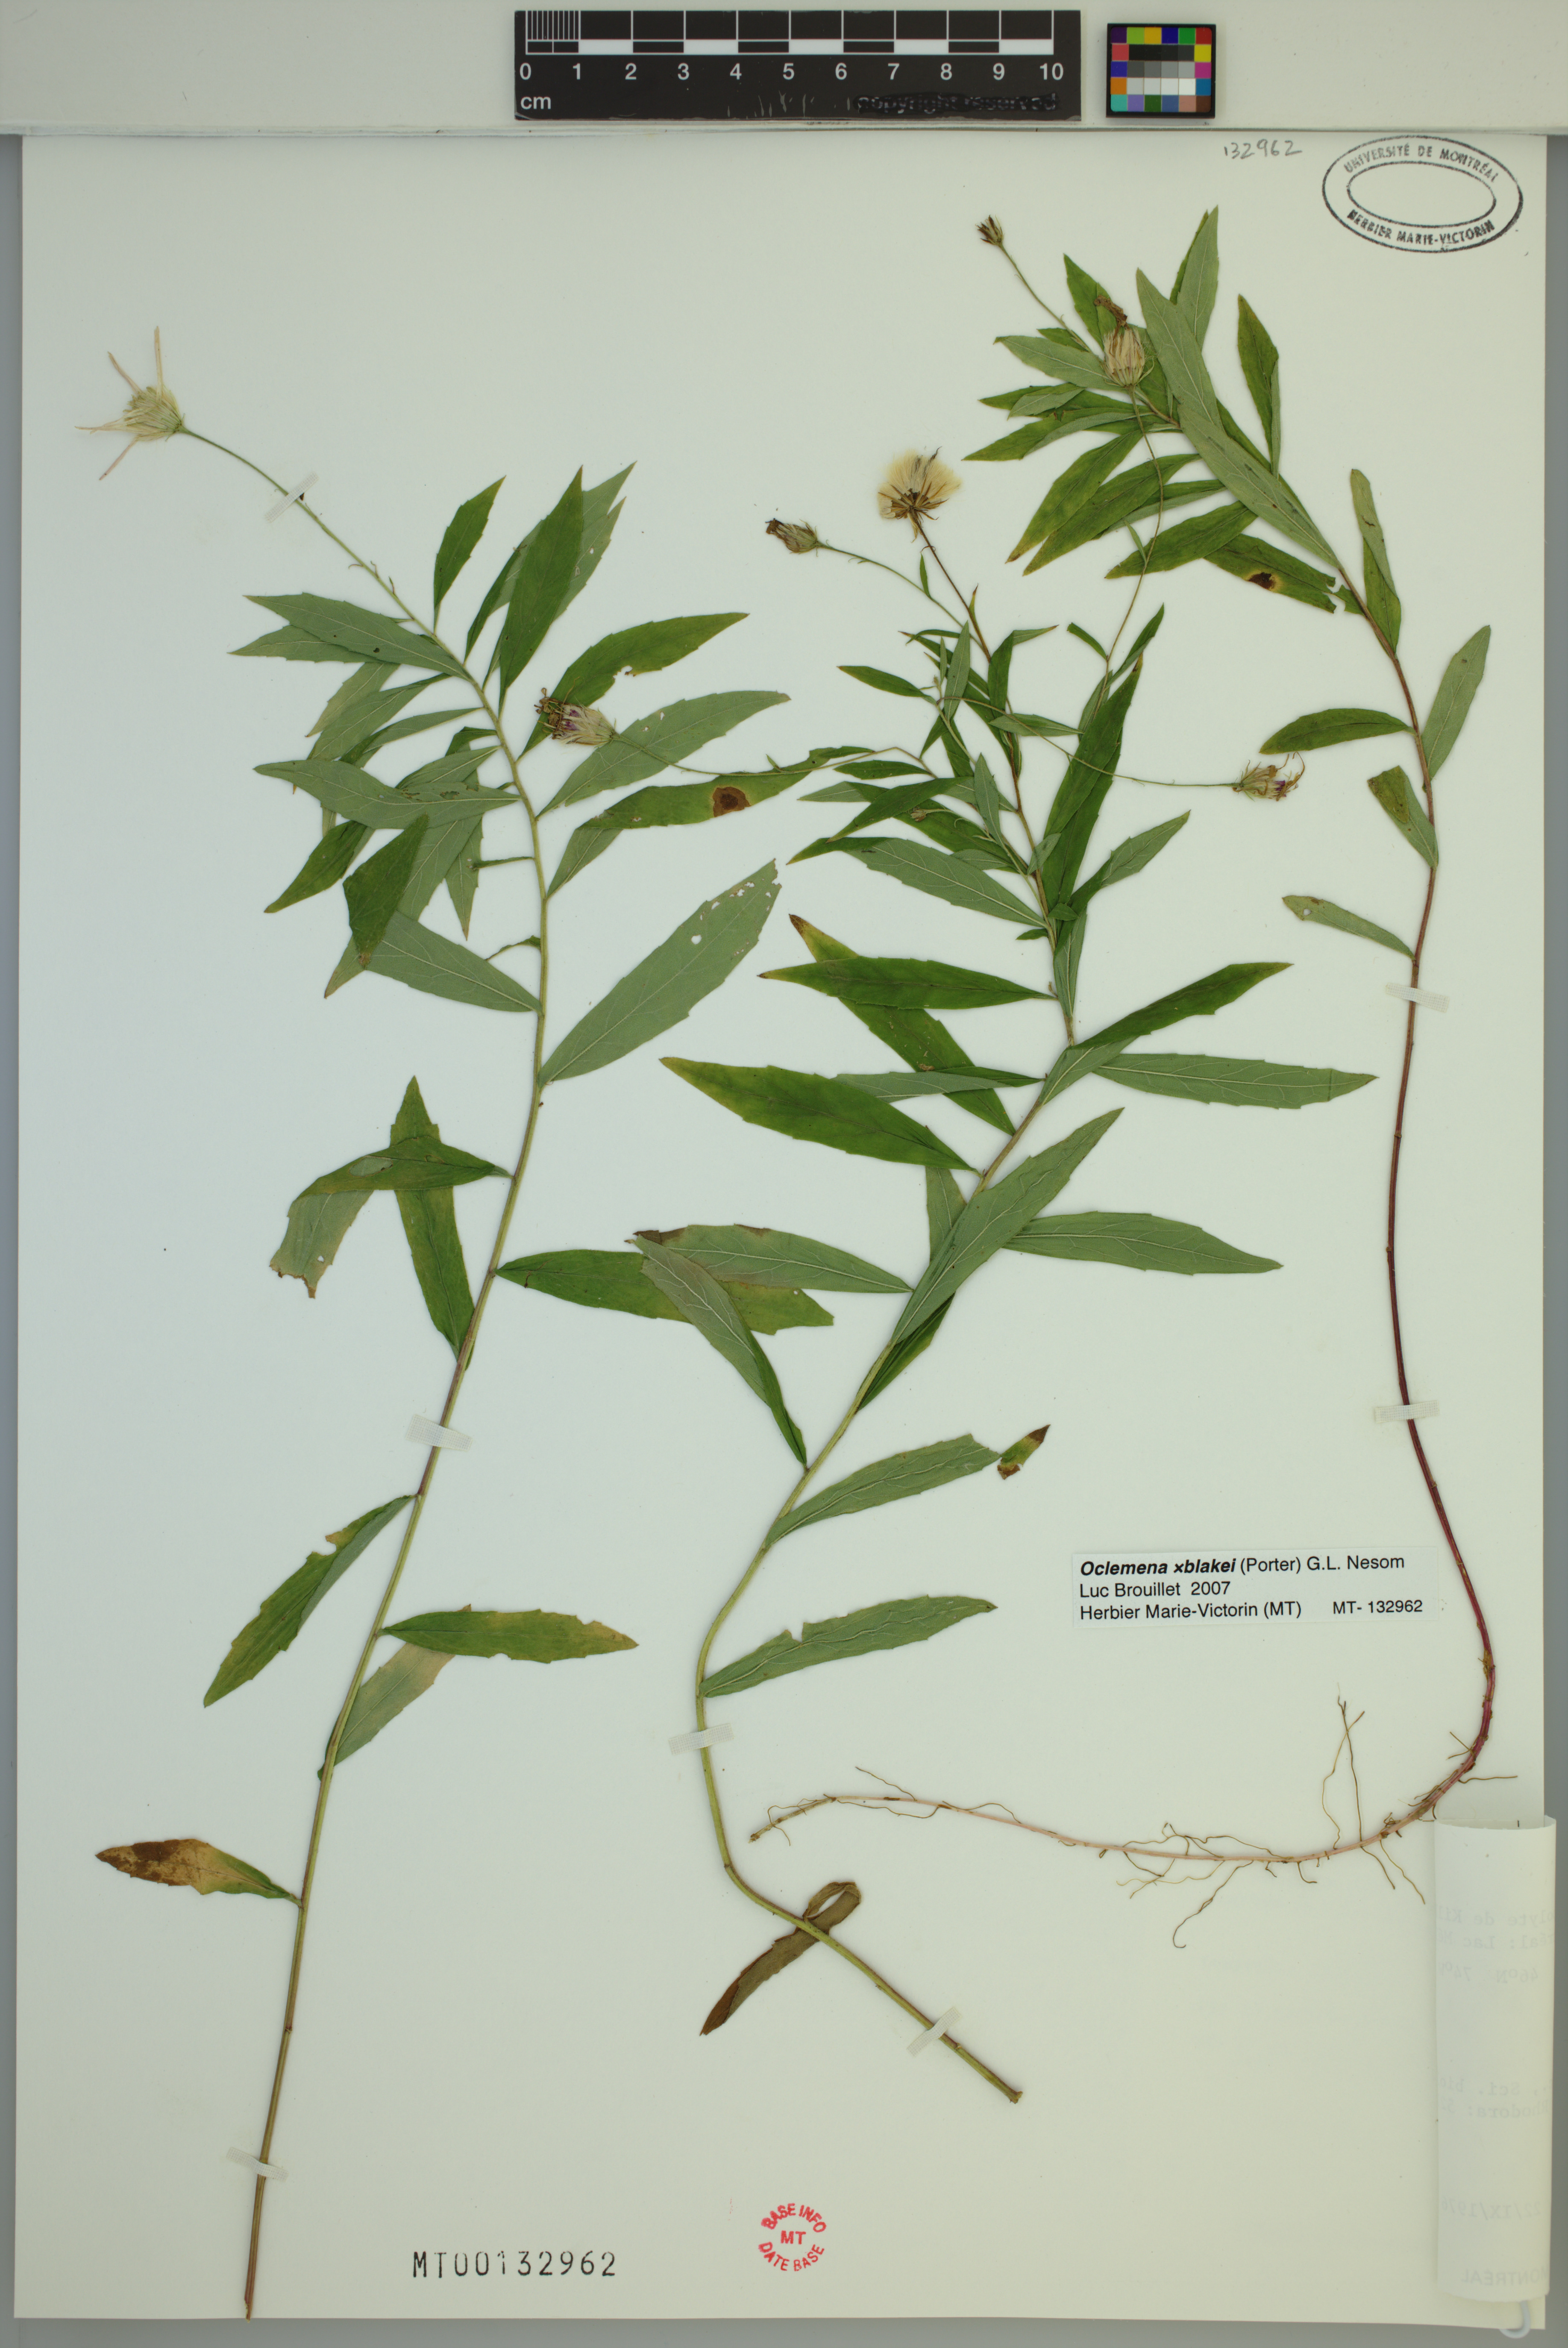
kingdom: Plantae
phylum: Tracheophyta
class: Magnoliopsida
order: Asterales
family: Asteraceae
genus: Oclemena
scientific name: Oclemena blakei
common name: Blake's aster
